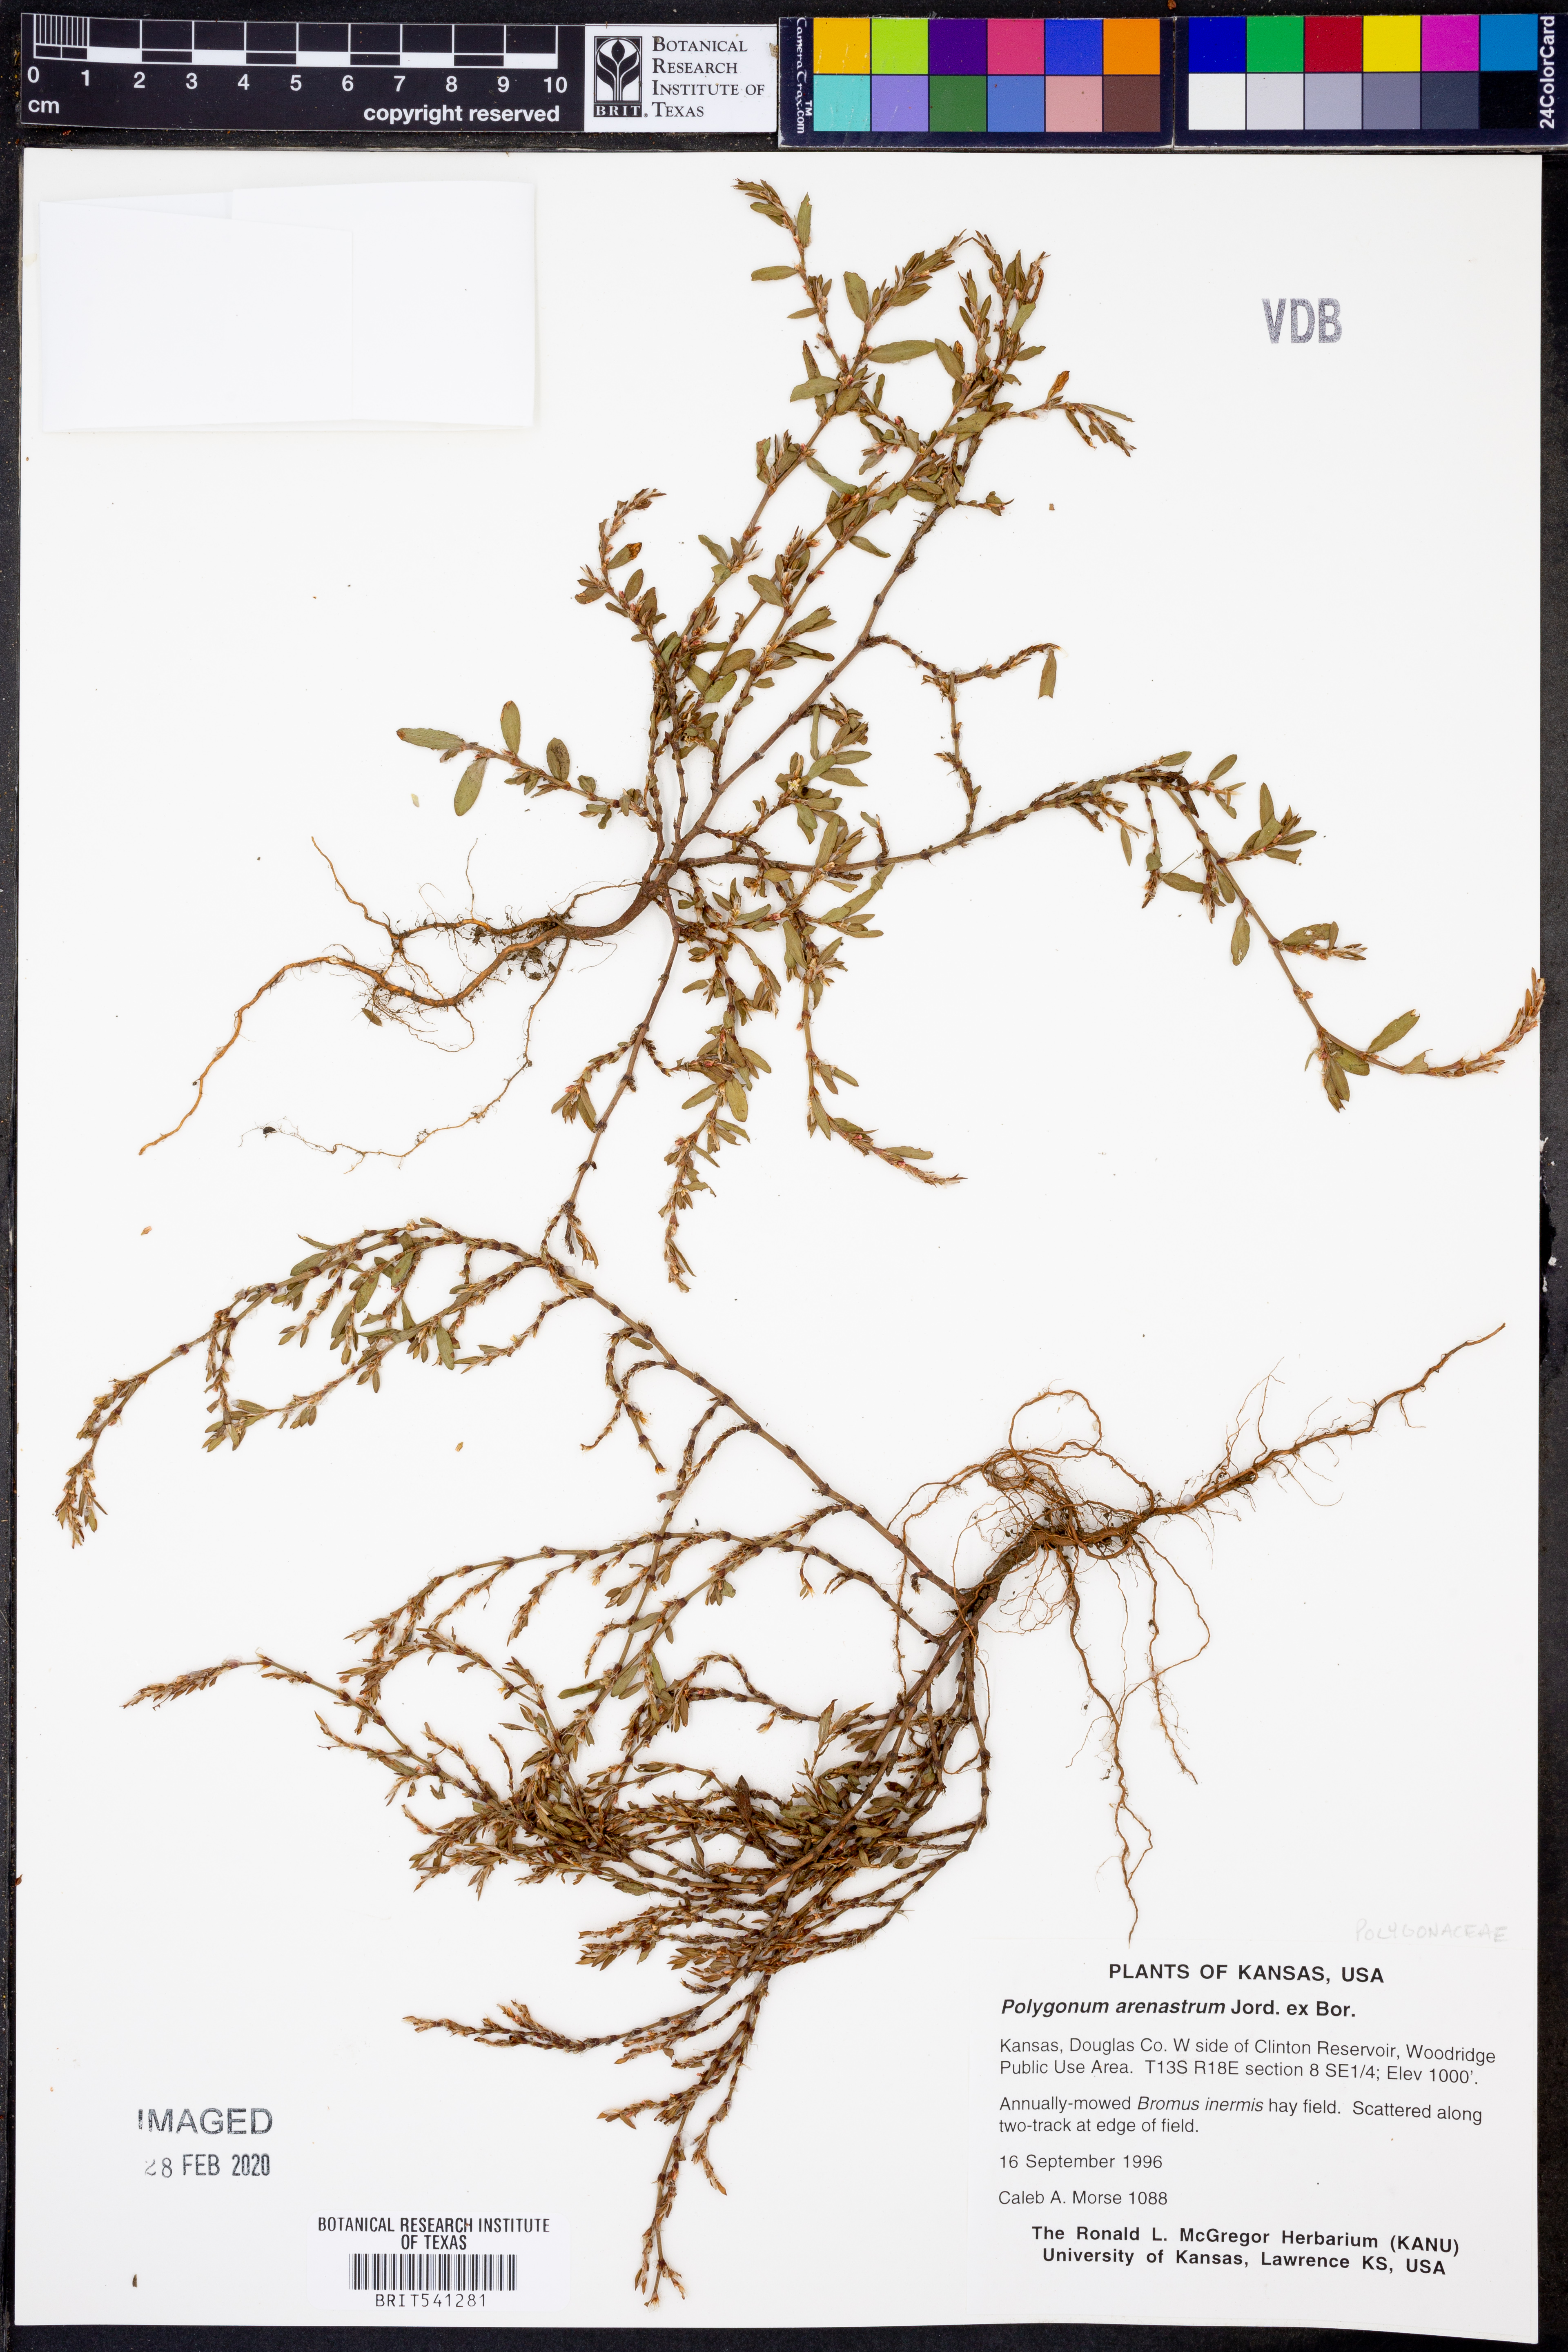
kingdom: Plantae
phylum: Tracheophyta
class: Magnoliopsida
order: Caryophyllales
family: Polygonaceae
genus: Polygonum
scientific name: Polygonum arenastrum
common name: Equal-leaved knotgrass
